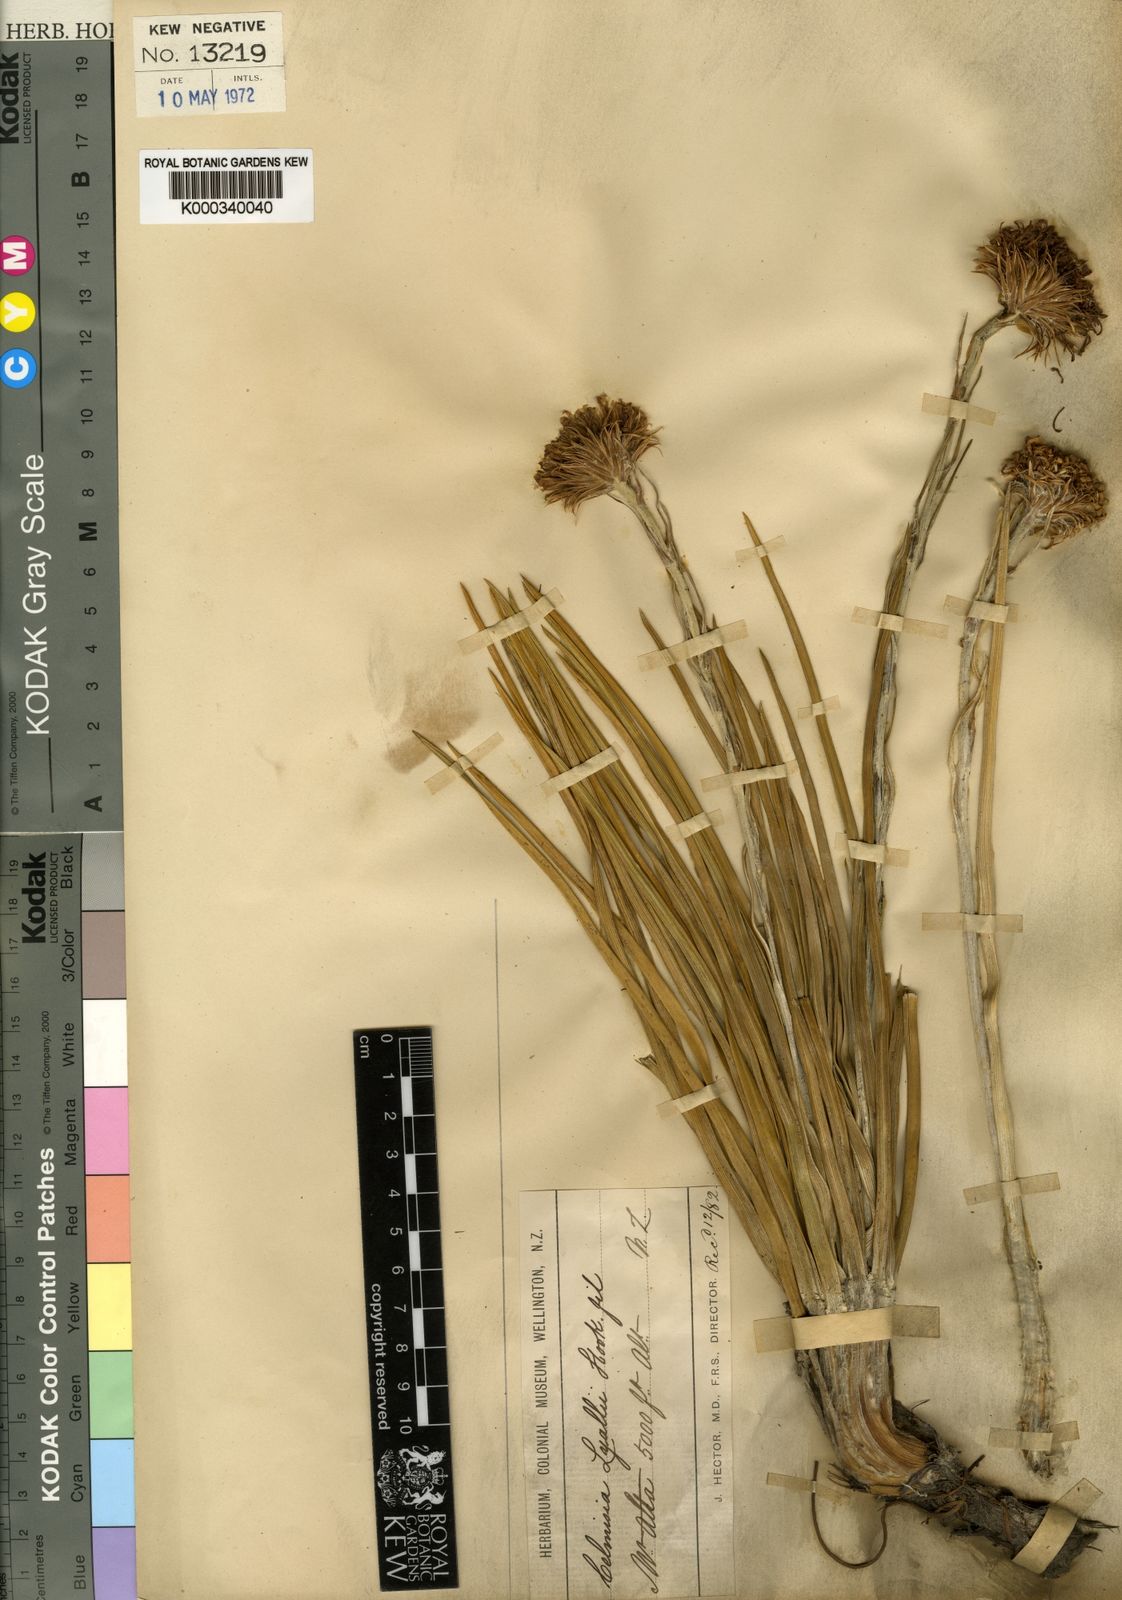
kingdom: Plantae
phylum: Tracheophyta
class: Magnoliopsida
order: Asterales
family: Asteraceae
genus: Celmisia
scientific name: Celmisia lyallii
